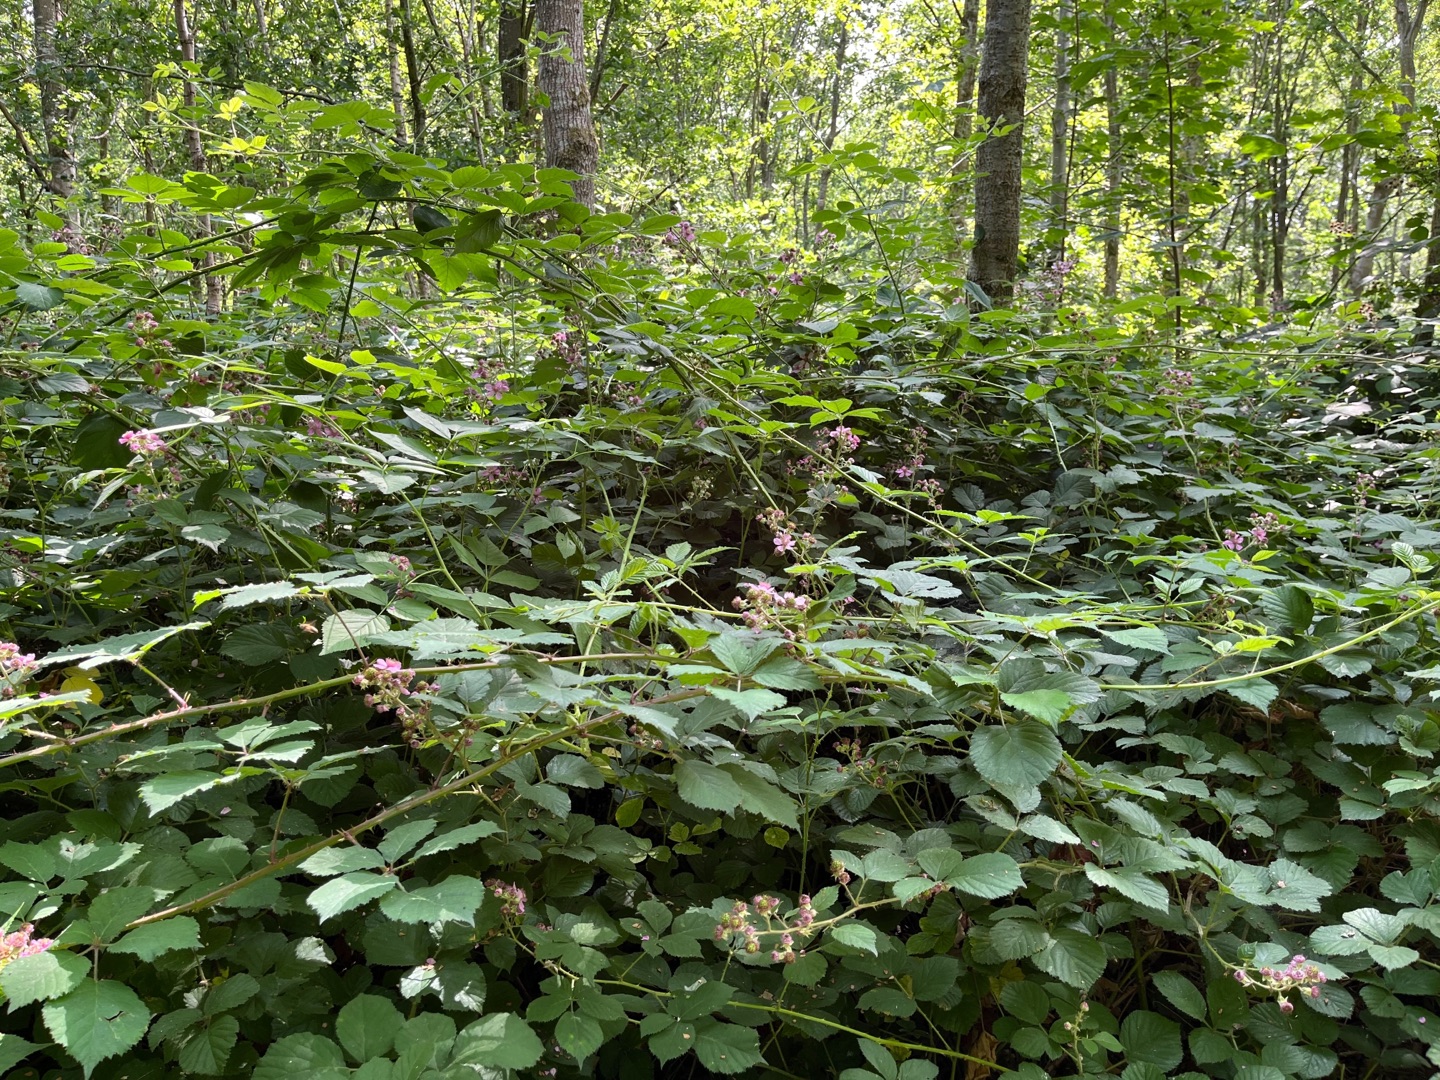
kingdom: Plantae
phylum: Tracheophyta
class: Magnoliopsida
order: Rosales
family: Rosaceae
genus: Rubus
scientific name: Rubus
